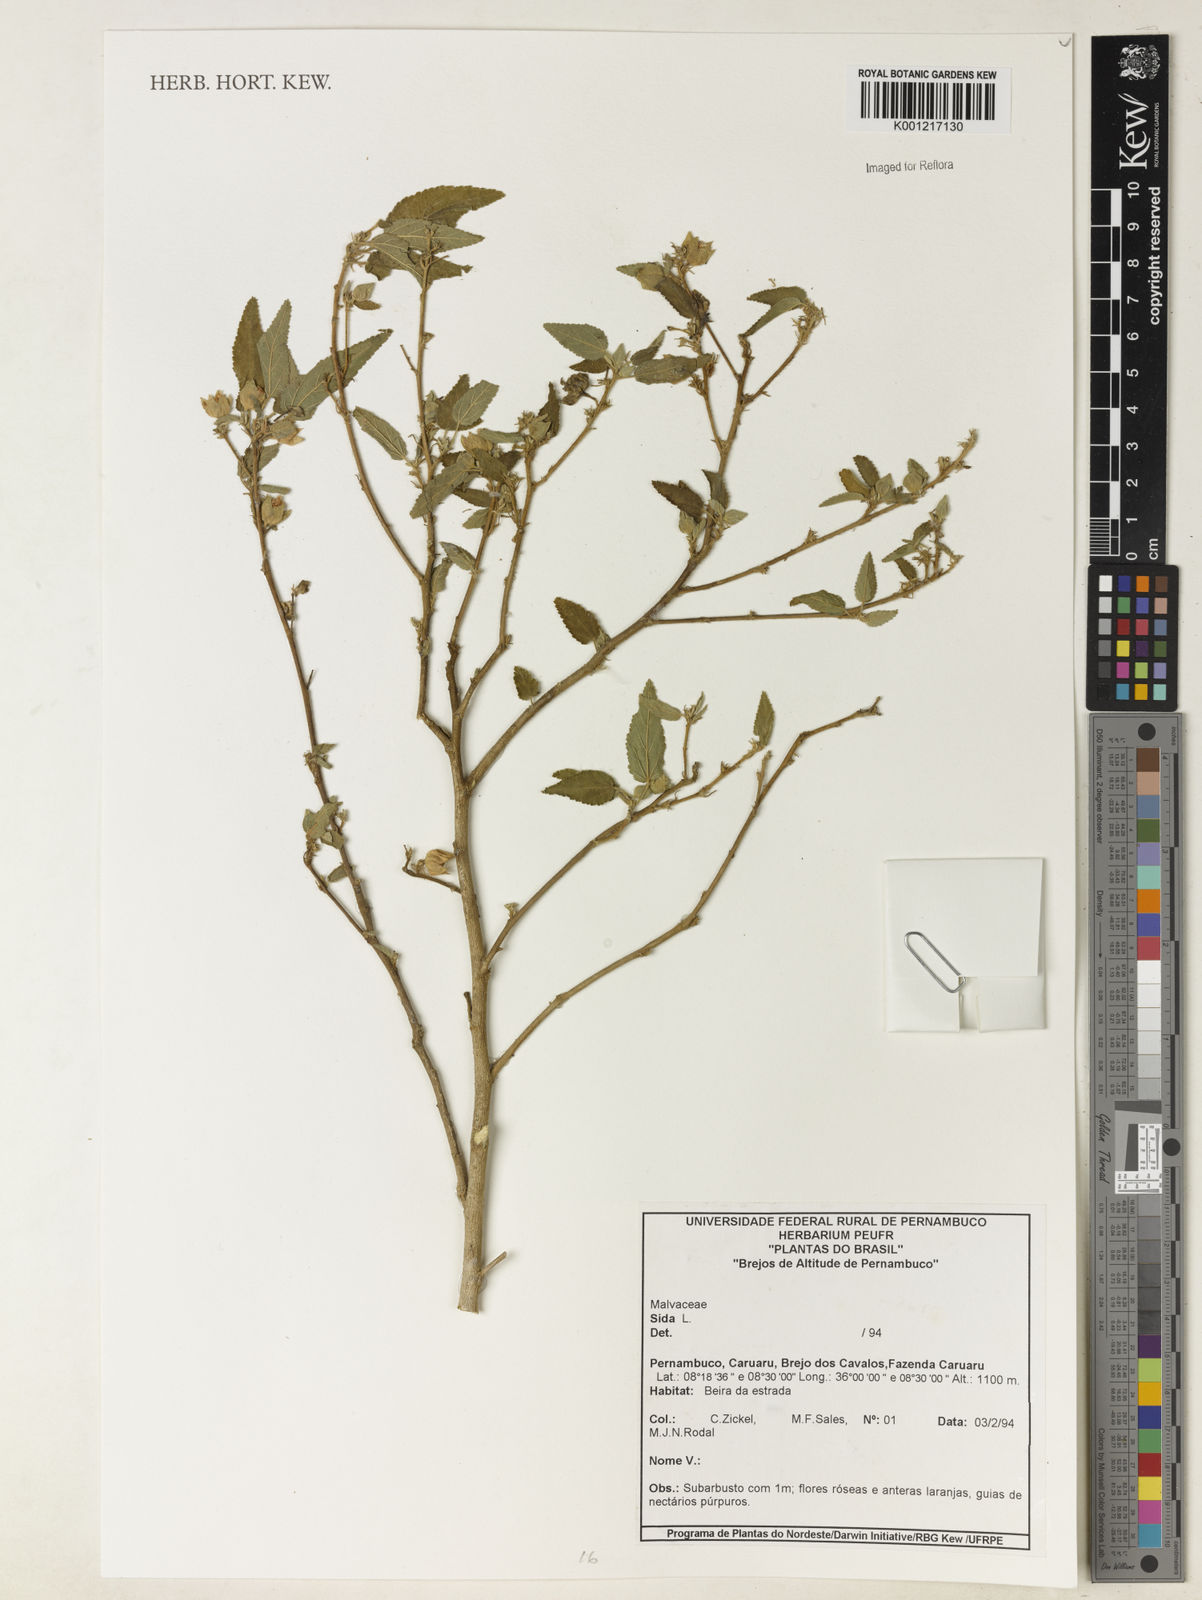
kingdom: Plantae
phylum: Tracheophyta
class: Magnoliopsida
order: Malvales
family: Malvaceae
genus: Sida
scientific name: Sida
